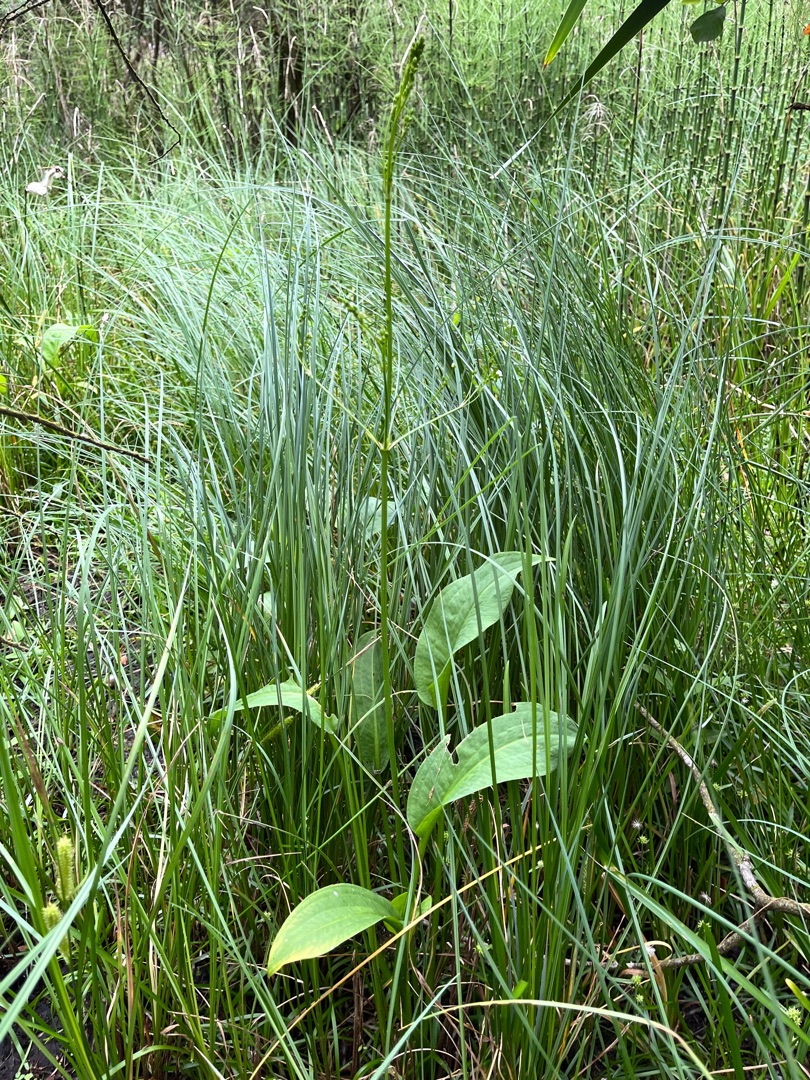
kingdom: Plantae
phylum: Tracheophyta
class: Liliopsida
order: Alismatales
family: Alismataceae
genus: Alisma
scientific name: Alisma plantago-aquatica
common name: Vejbred-skeblad
